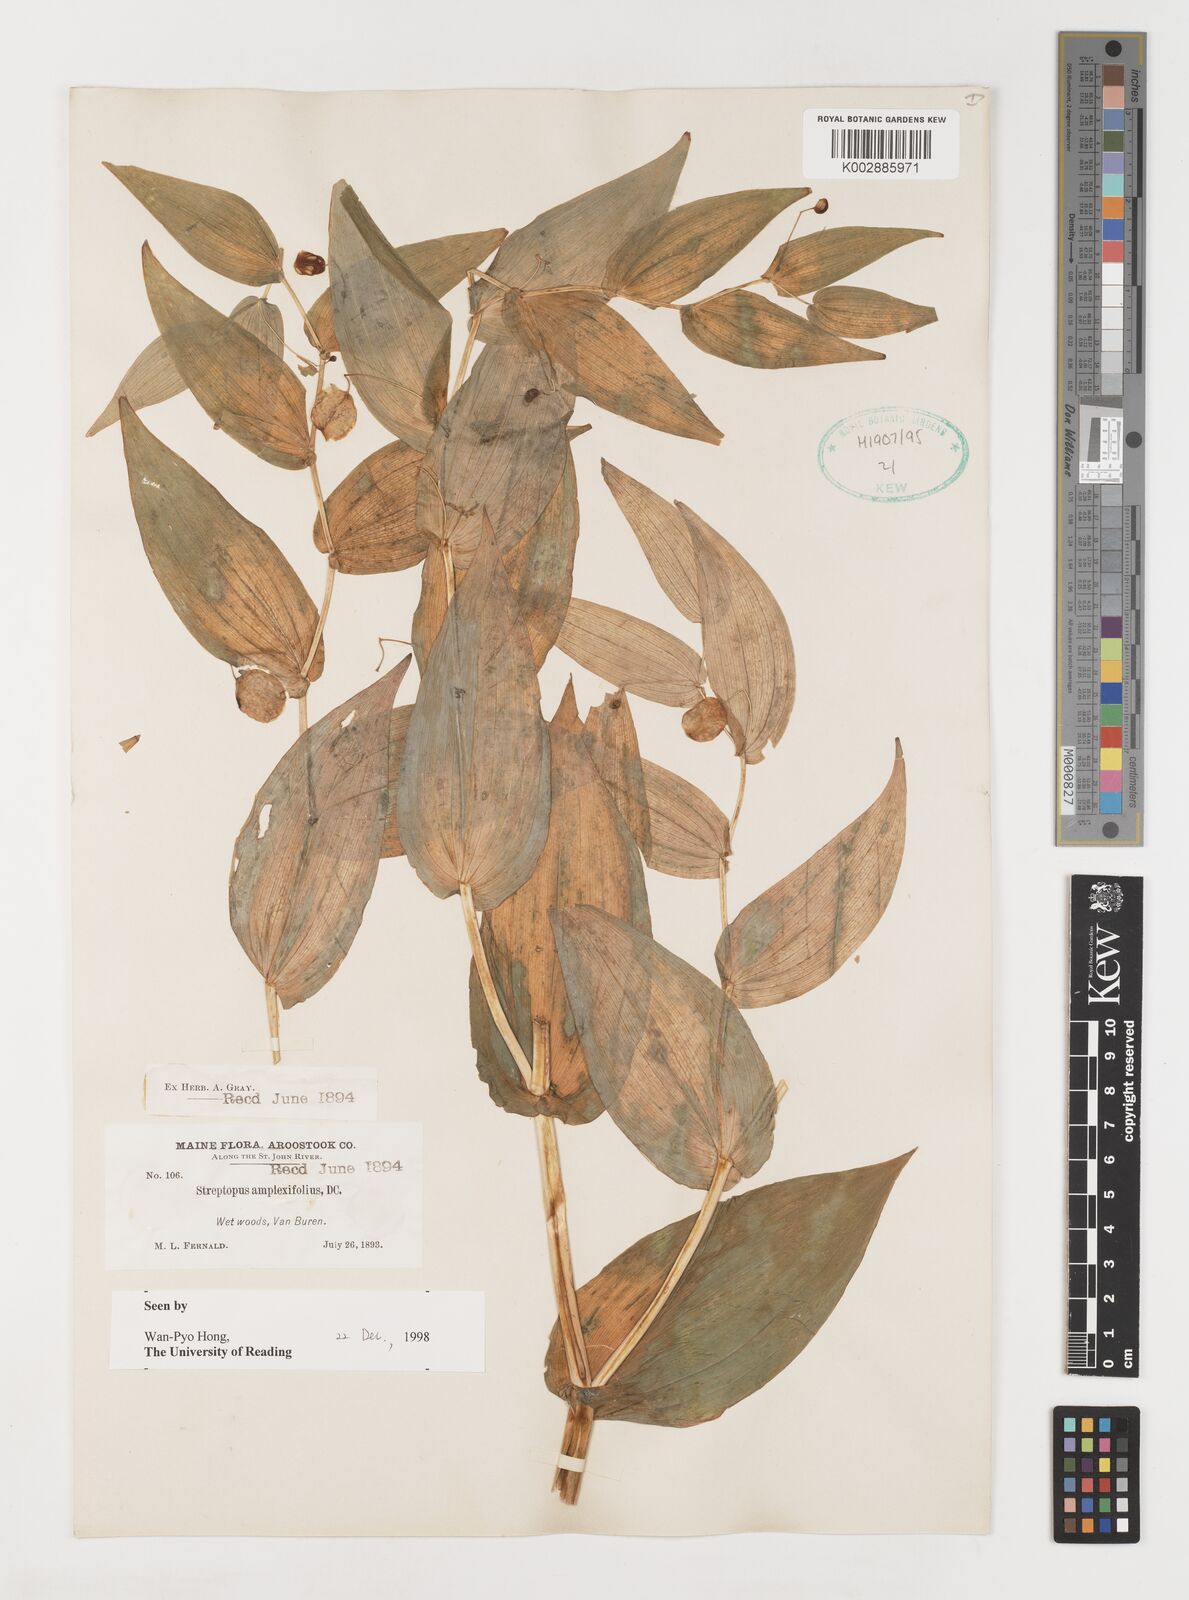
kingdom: Plantae
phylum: Tracheophyta
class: Liliopsida
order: Liliales
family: Liliaceae
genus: Streptopus
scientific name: Streptopus amplexifolius
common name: Clasp twisted stalk
